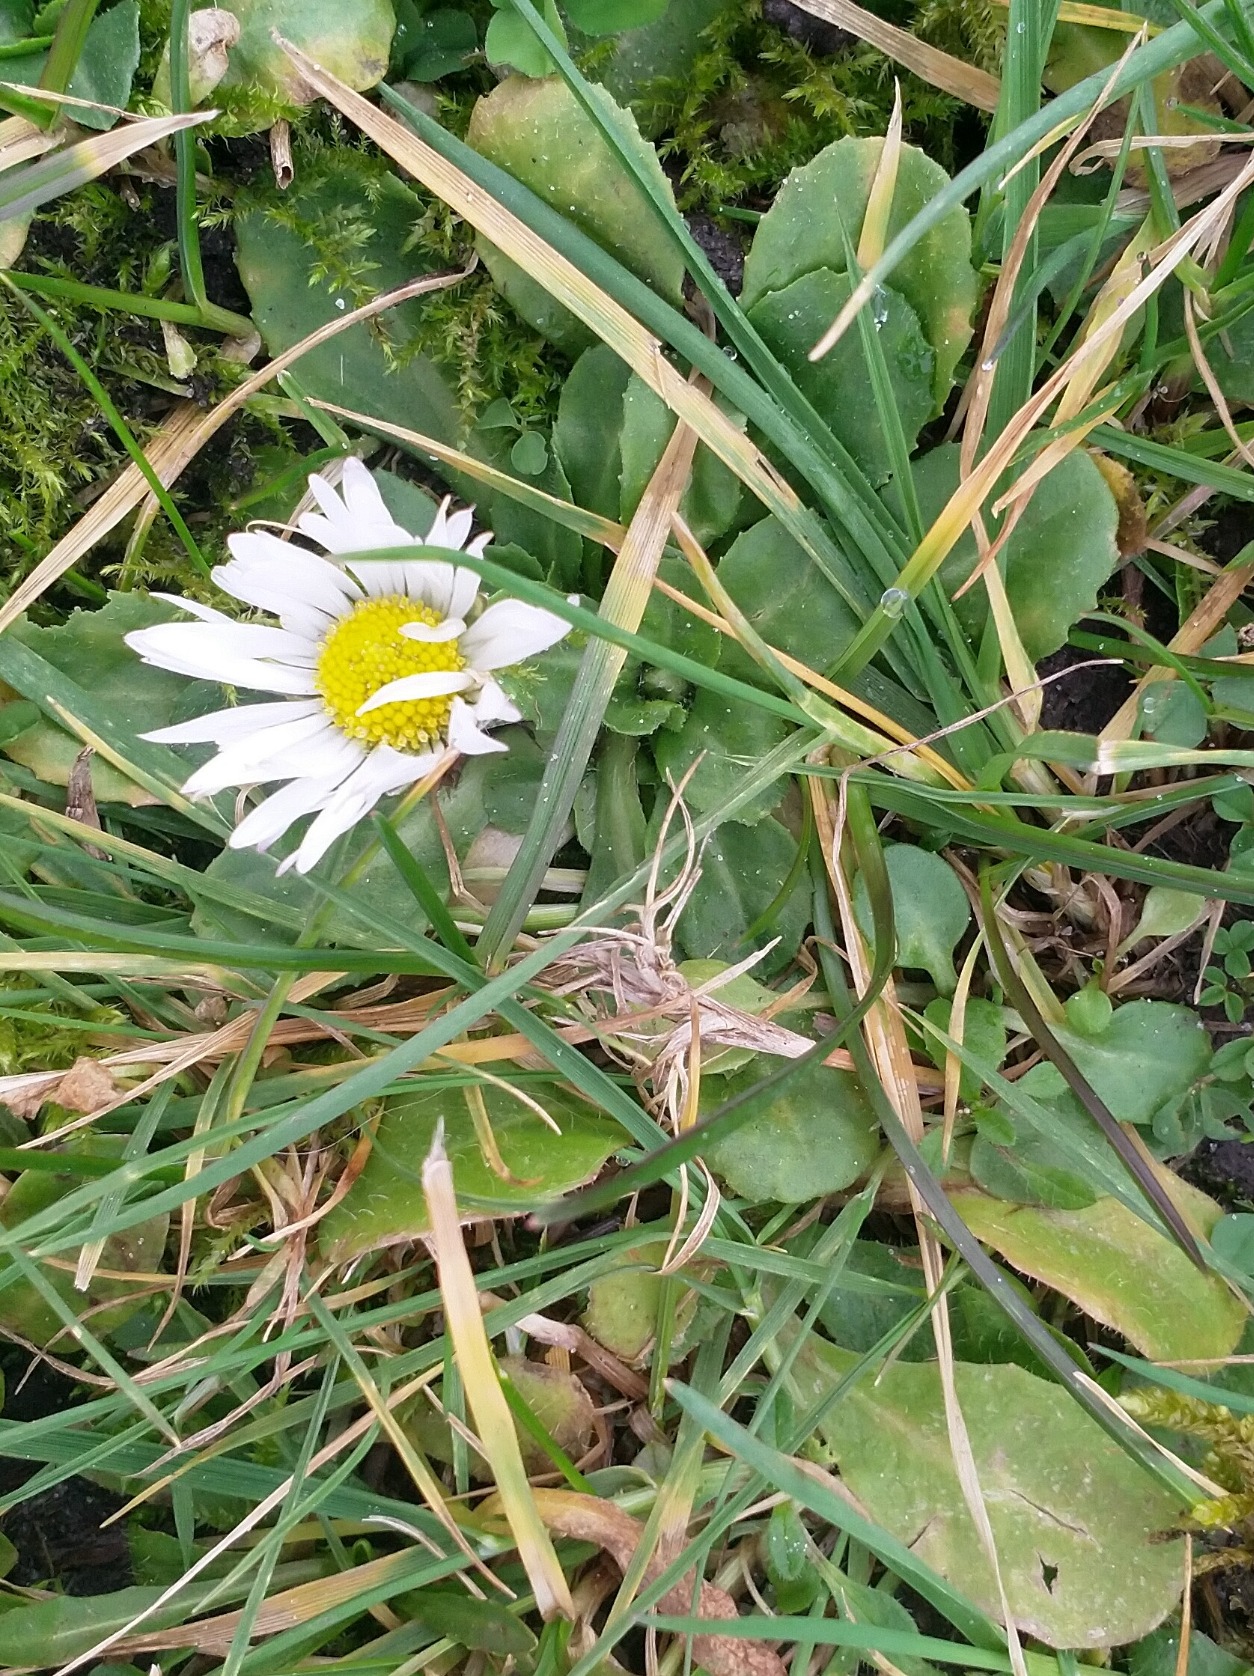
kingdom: Plantae
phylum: Tracheophyta
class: Magnoliopsida
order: Asterales
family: Asteraceae
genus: Bellis
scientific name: Bellis perennis
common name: Tusindfryd
